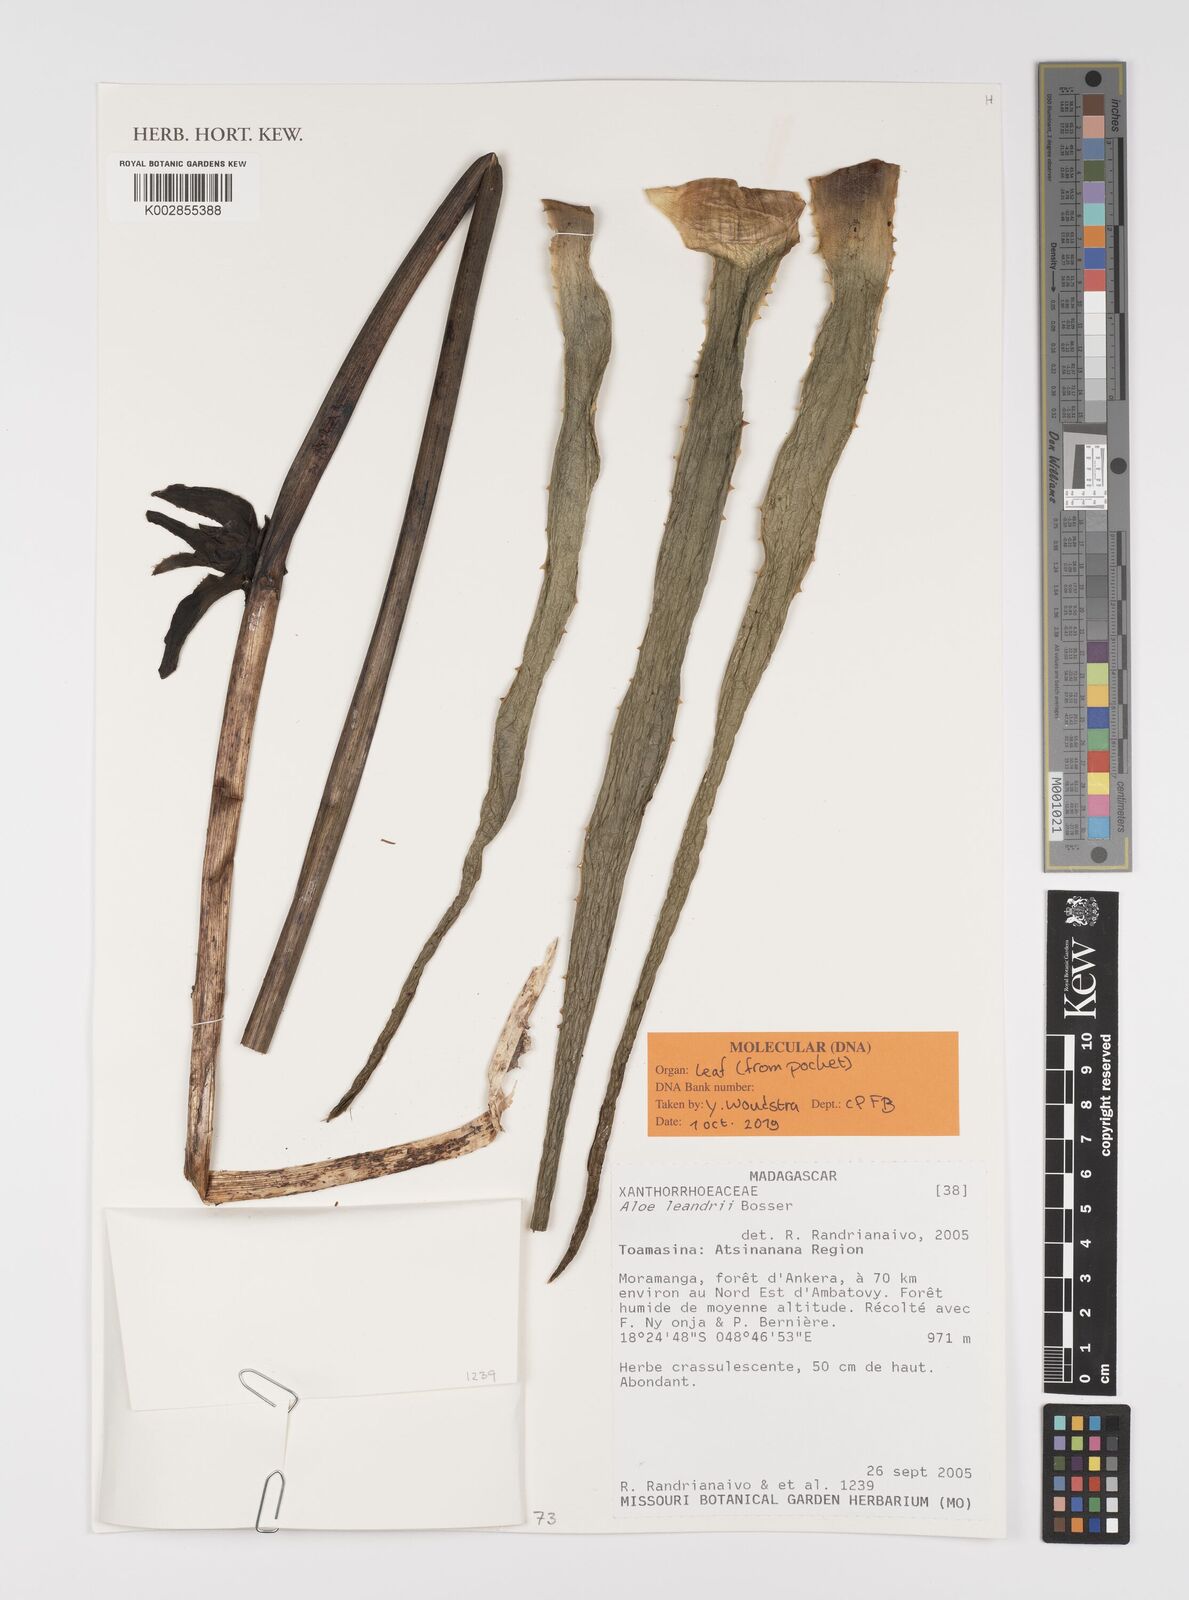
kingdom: Plantae
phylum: Tracheophyta
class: Liliopsida
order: Asparagales
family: Asphodelaceae
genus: Aloe
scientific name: Aloe leandrii
